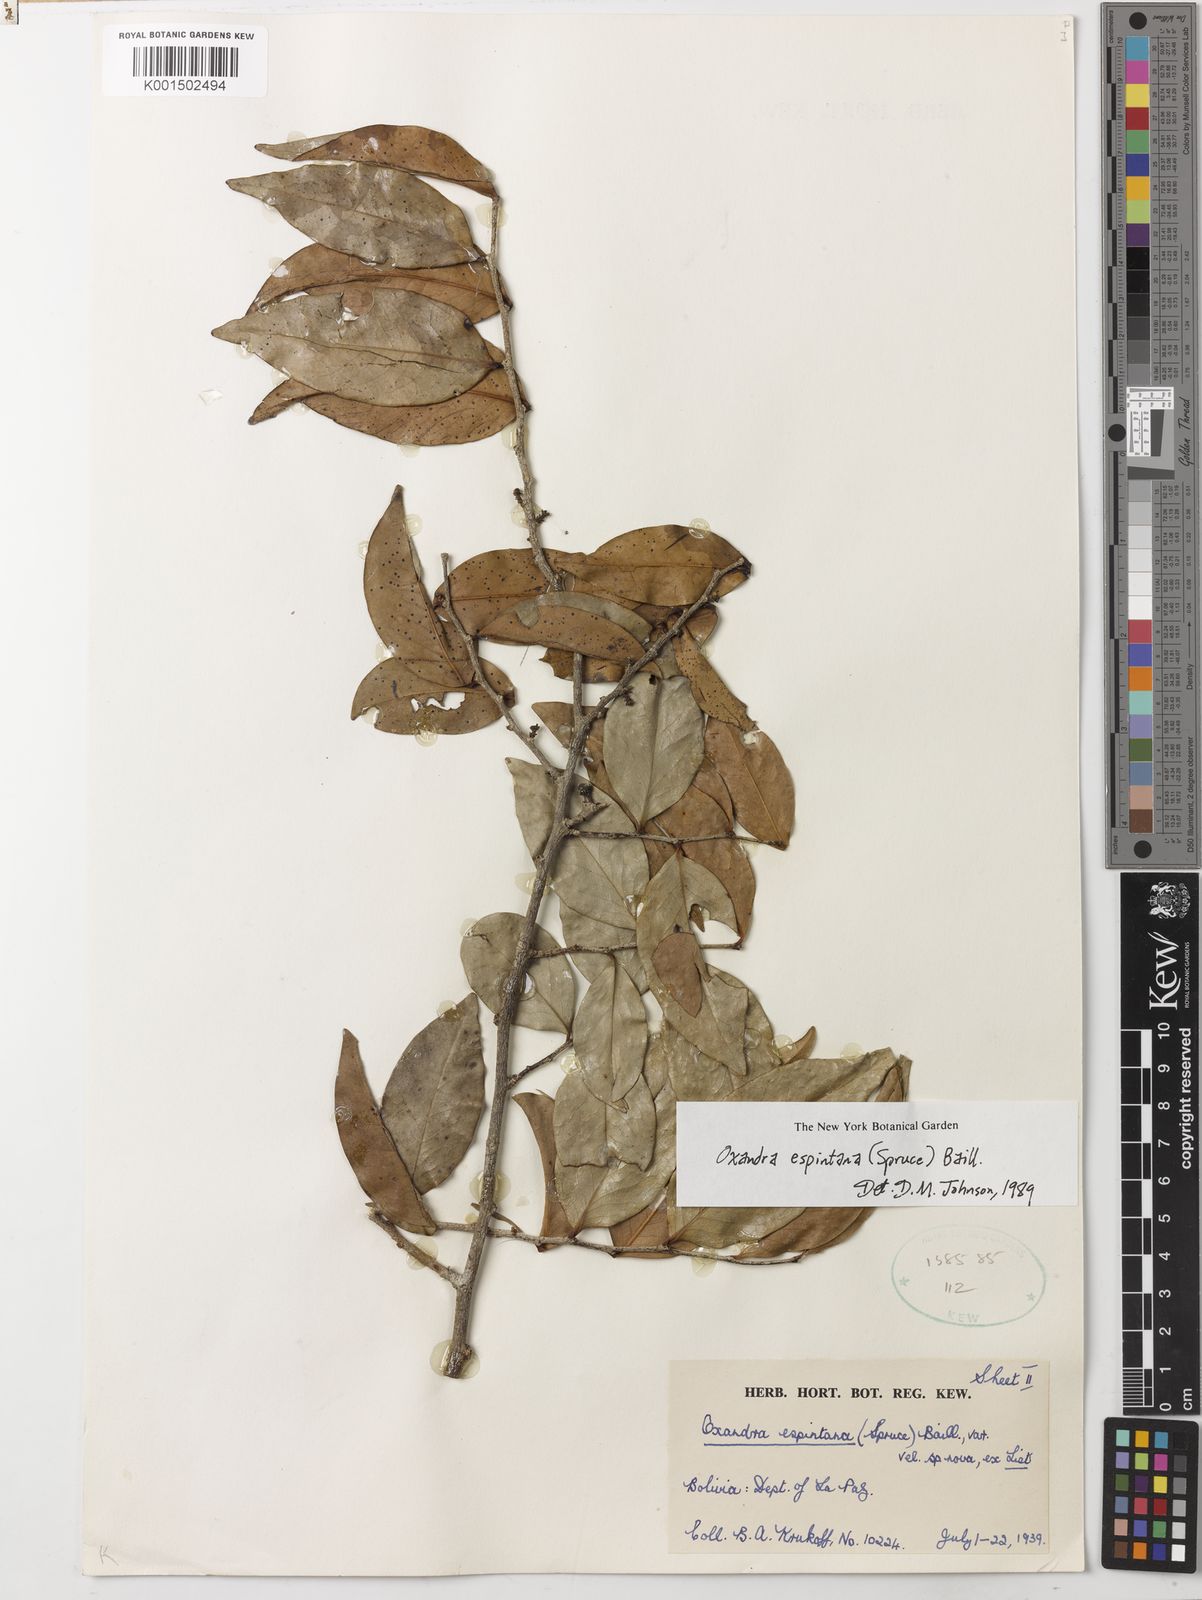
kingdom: Plantae
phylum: Tracheophyta
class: Magnoliopsida
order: Magnoliales
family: Annonaceae
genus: Oxandra
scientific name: Oxandra espintana
